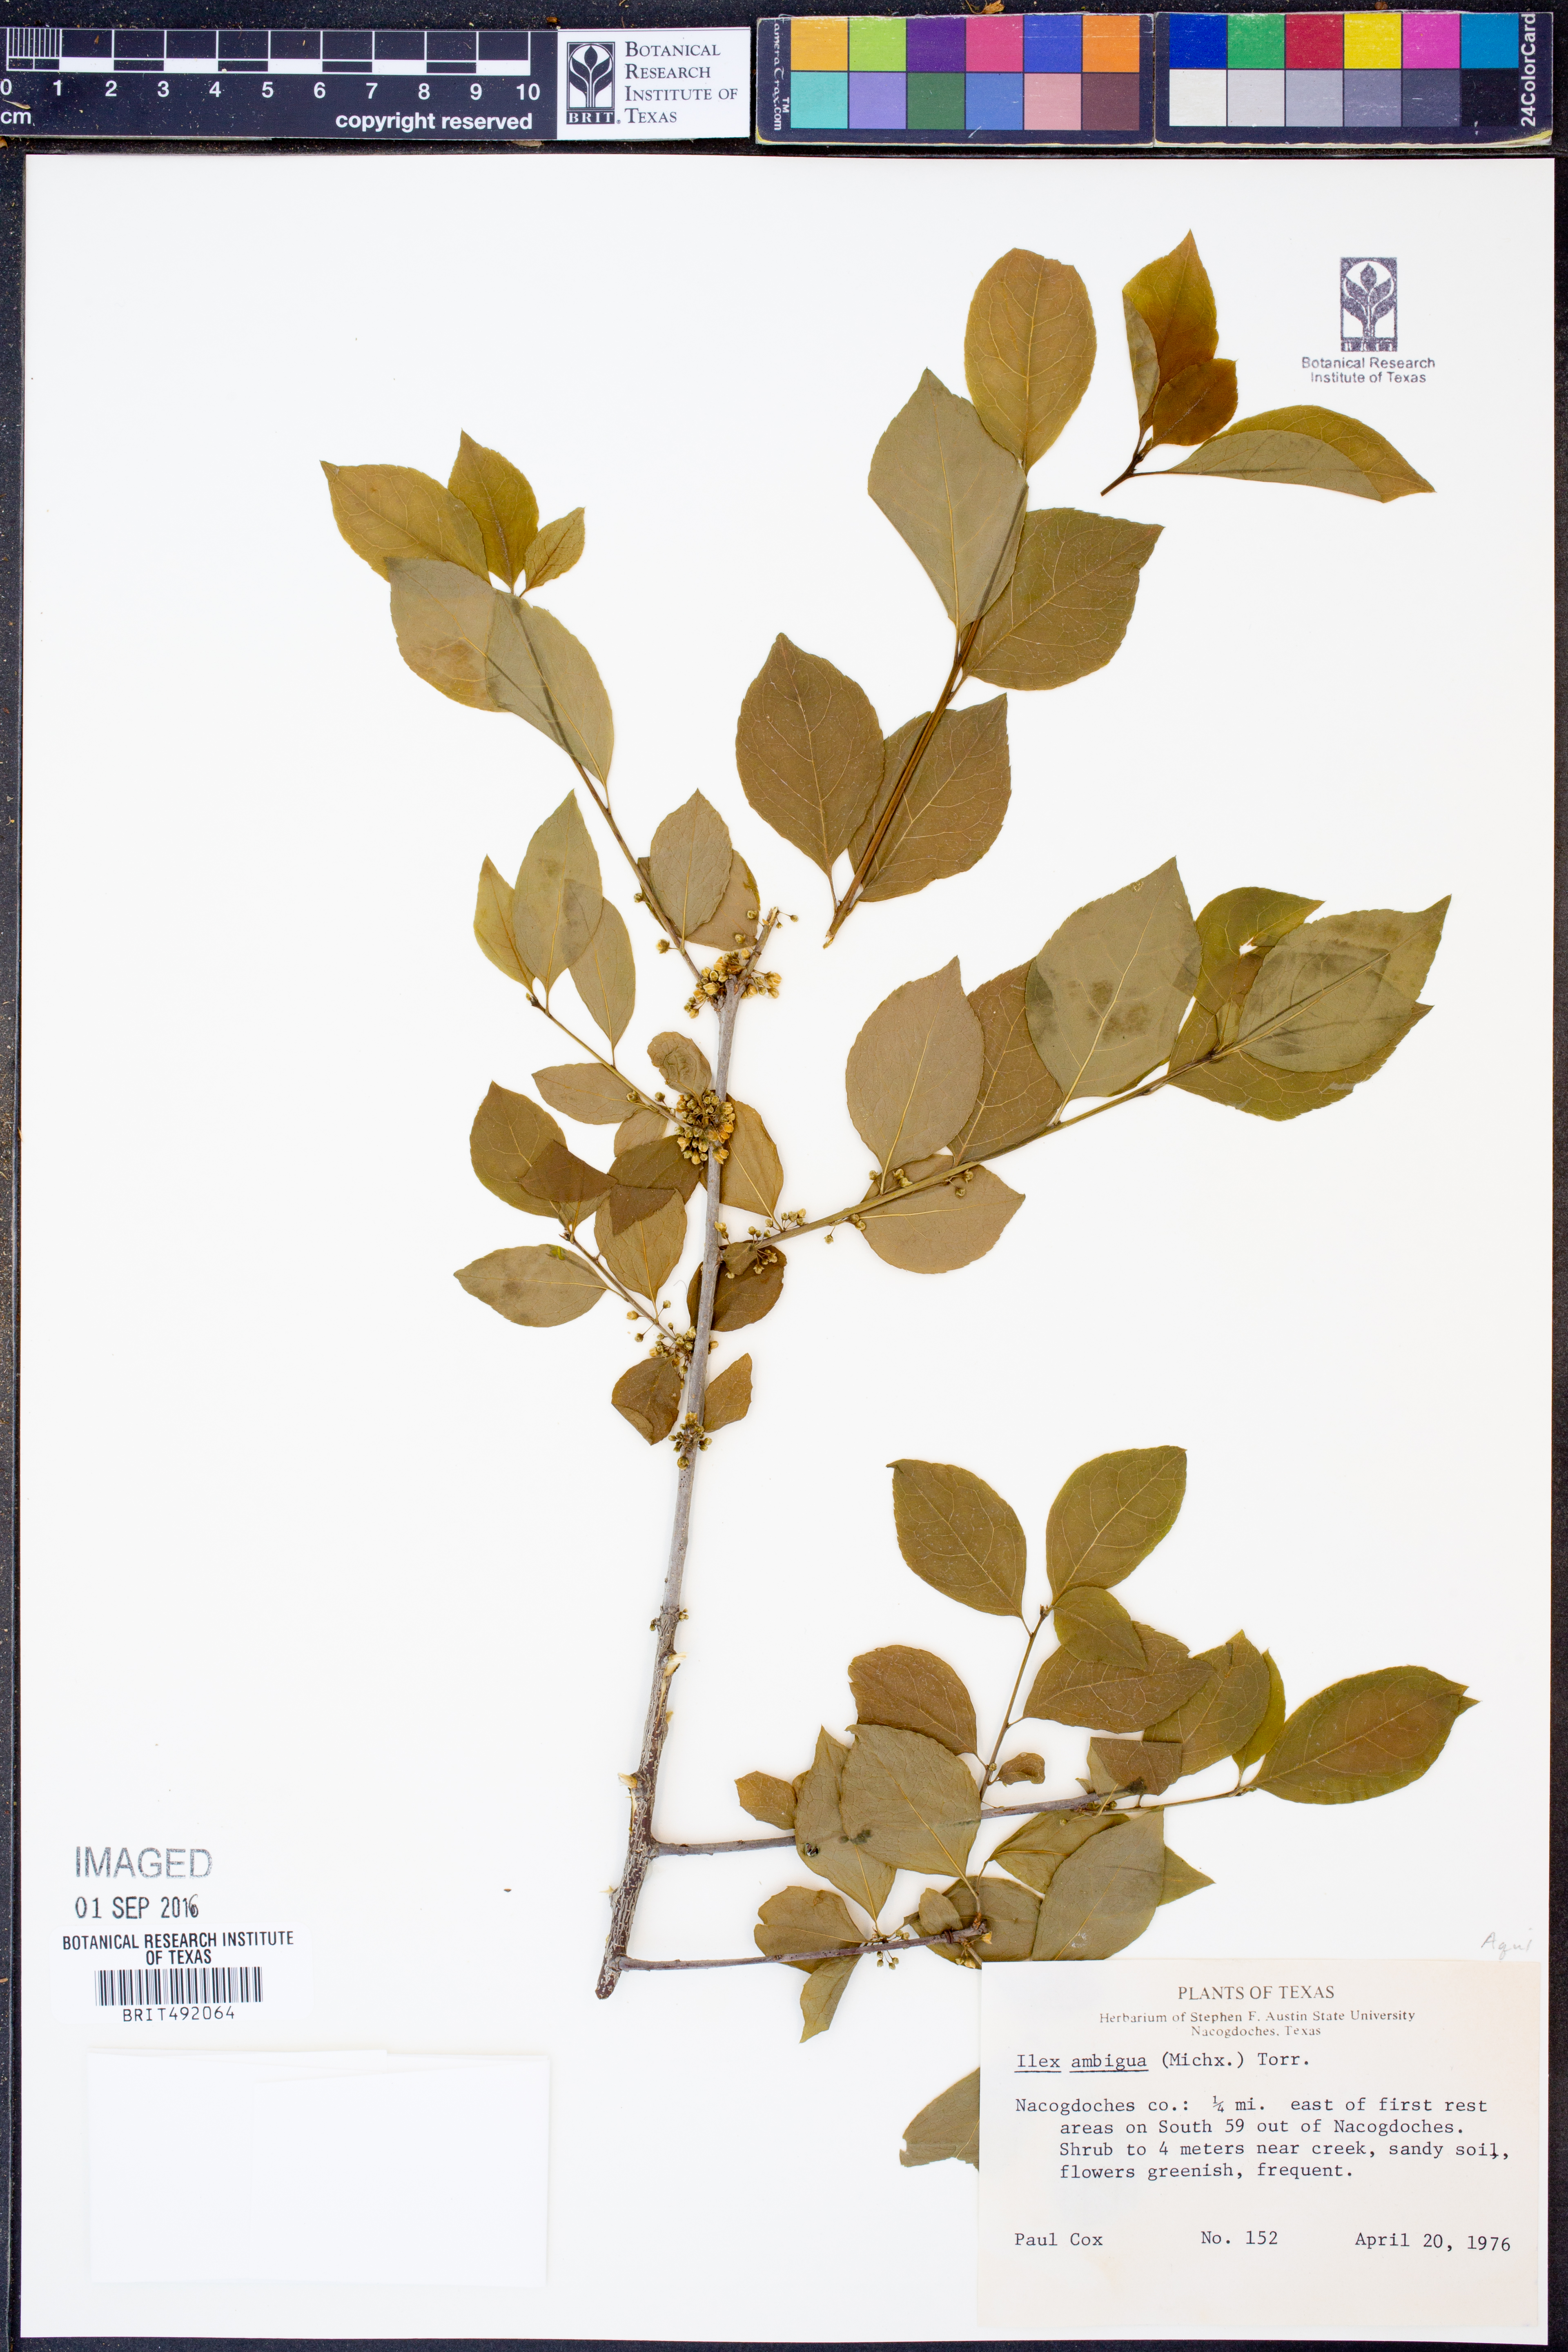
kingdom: Plantae
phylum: Tracheophyta
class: Magnoliopsida
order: Aquifoliales
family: Aquifoliaceae
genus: Ilex
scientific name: Ilex ambigua
